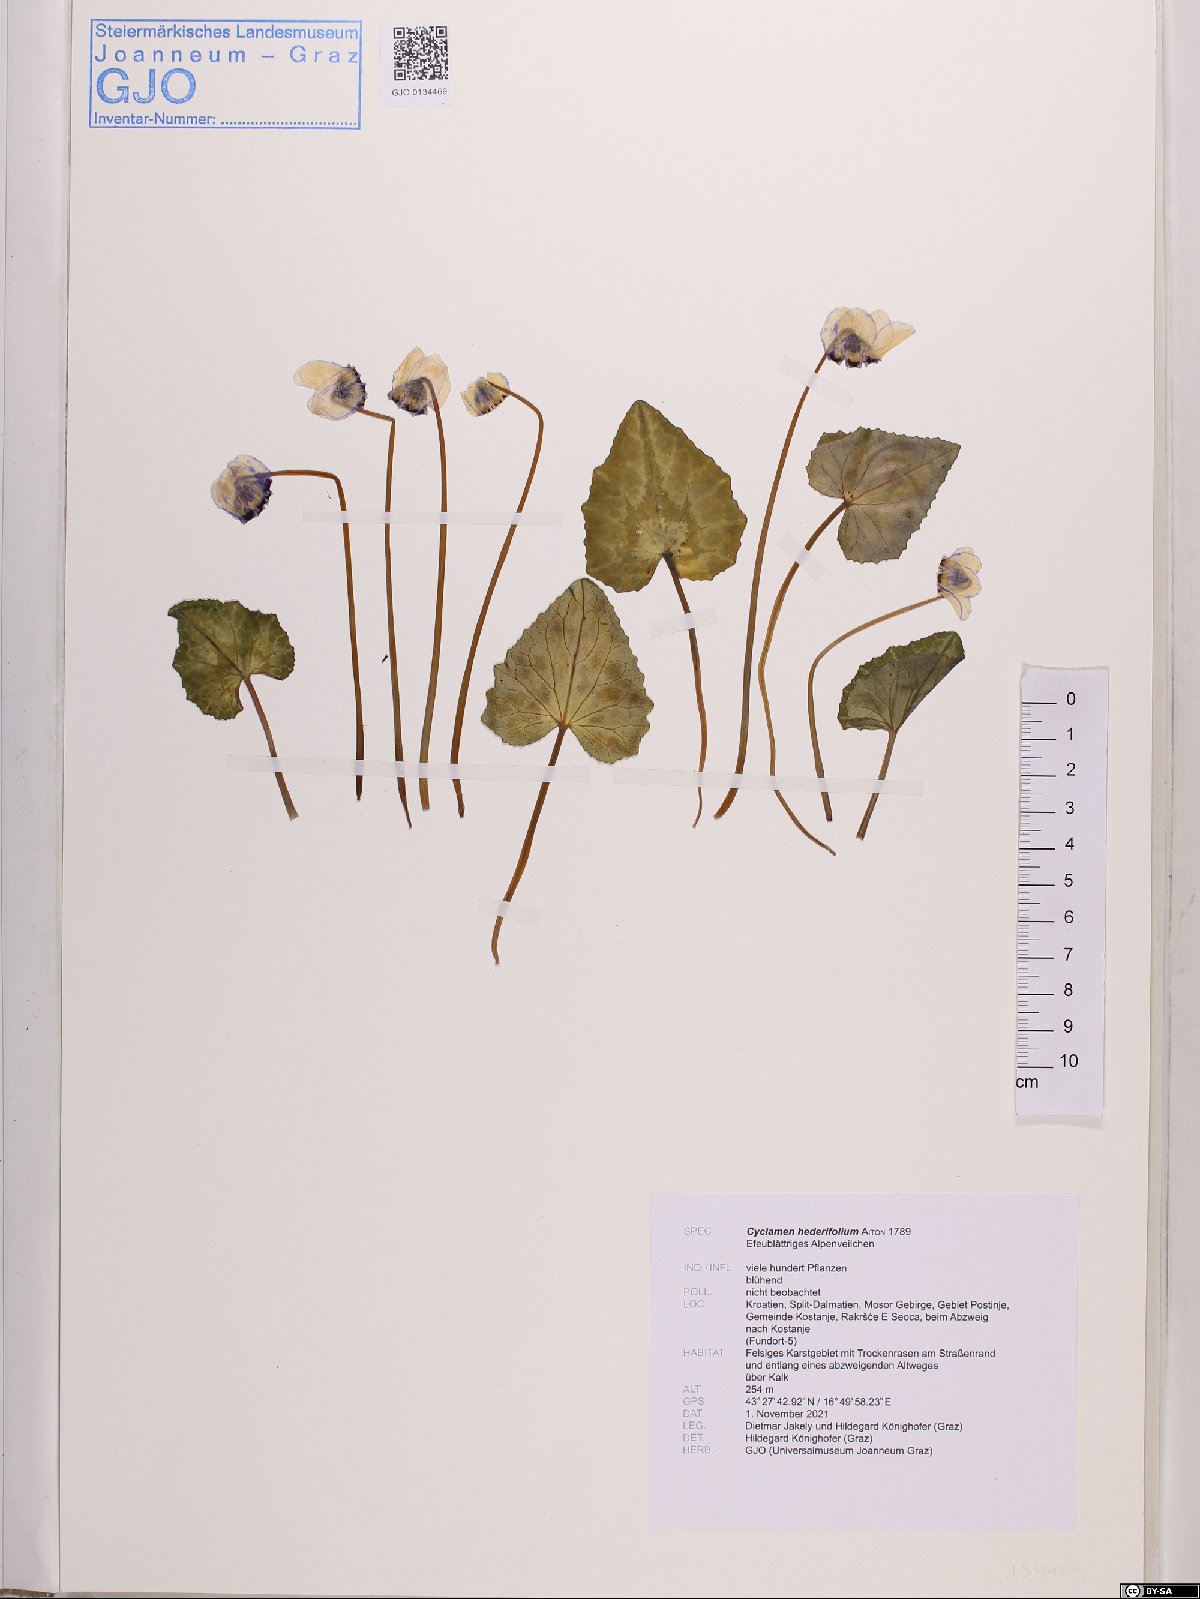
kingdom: Plantae
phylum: Tracheophyta
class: Magnoliopsida
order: Ericales
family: Primulaceae
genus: Cyclamen
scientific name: Cyclamen hederifolium
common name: Sowbread
